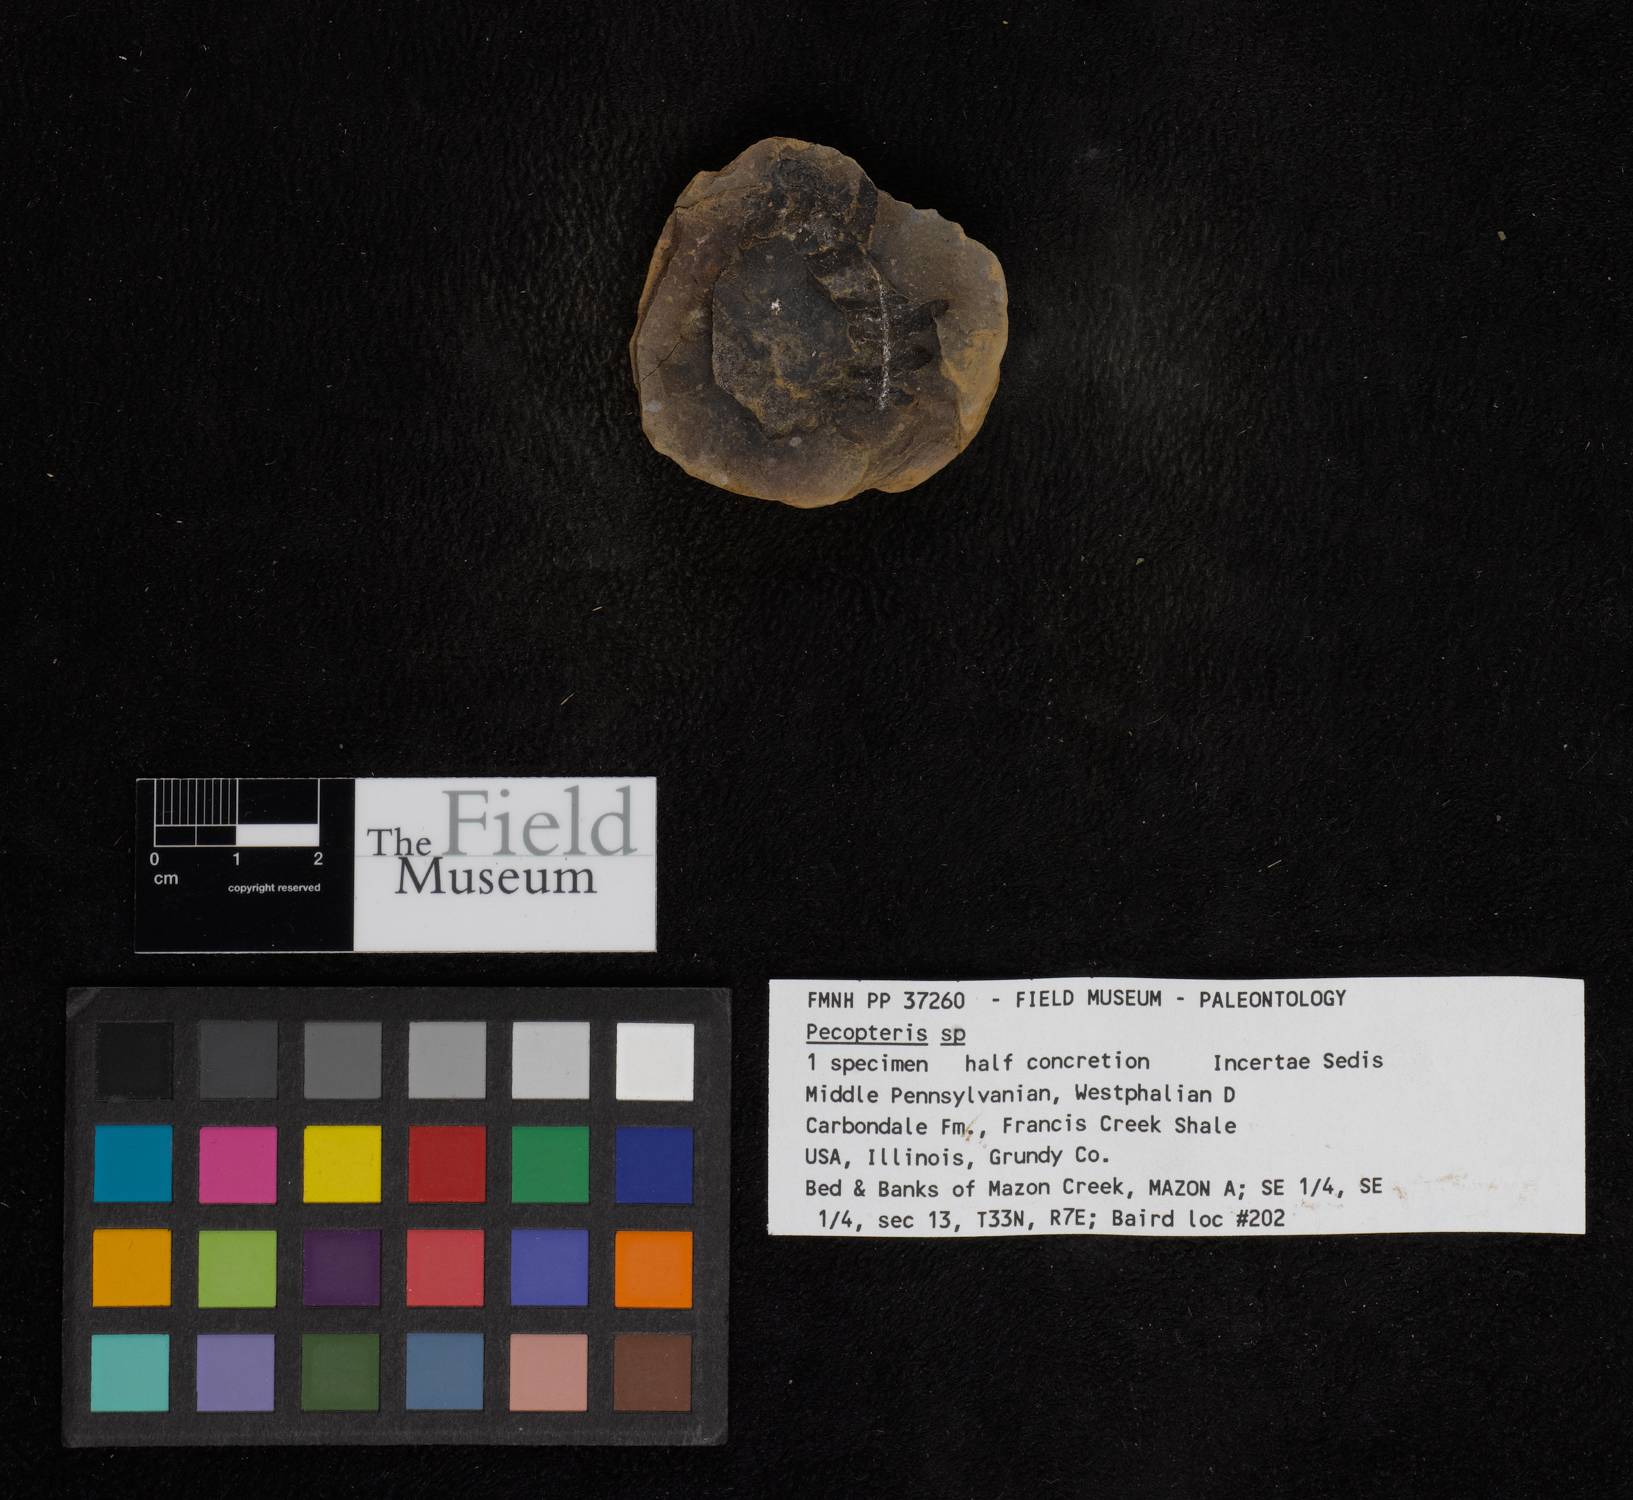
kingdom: Plantae
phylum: Tracheophyta
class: Polypodiopsida
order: Marattiales
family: Asterothecaceae
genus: Pecopteris
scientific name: Pecopteris
